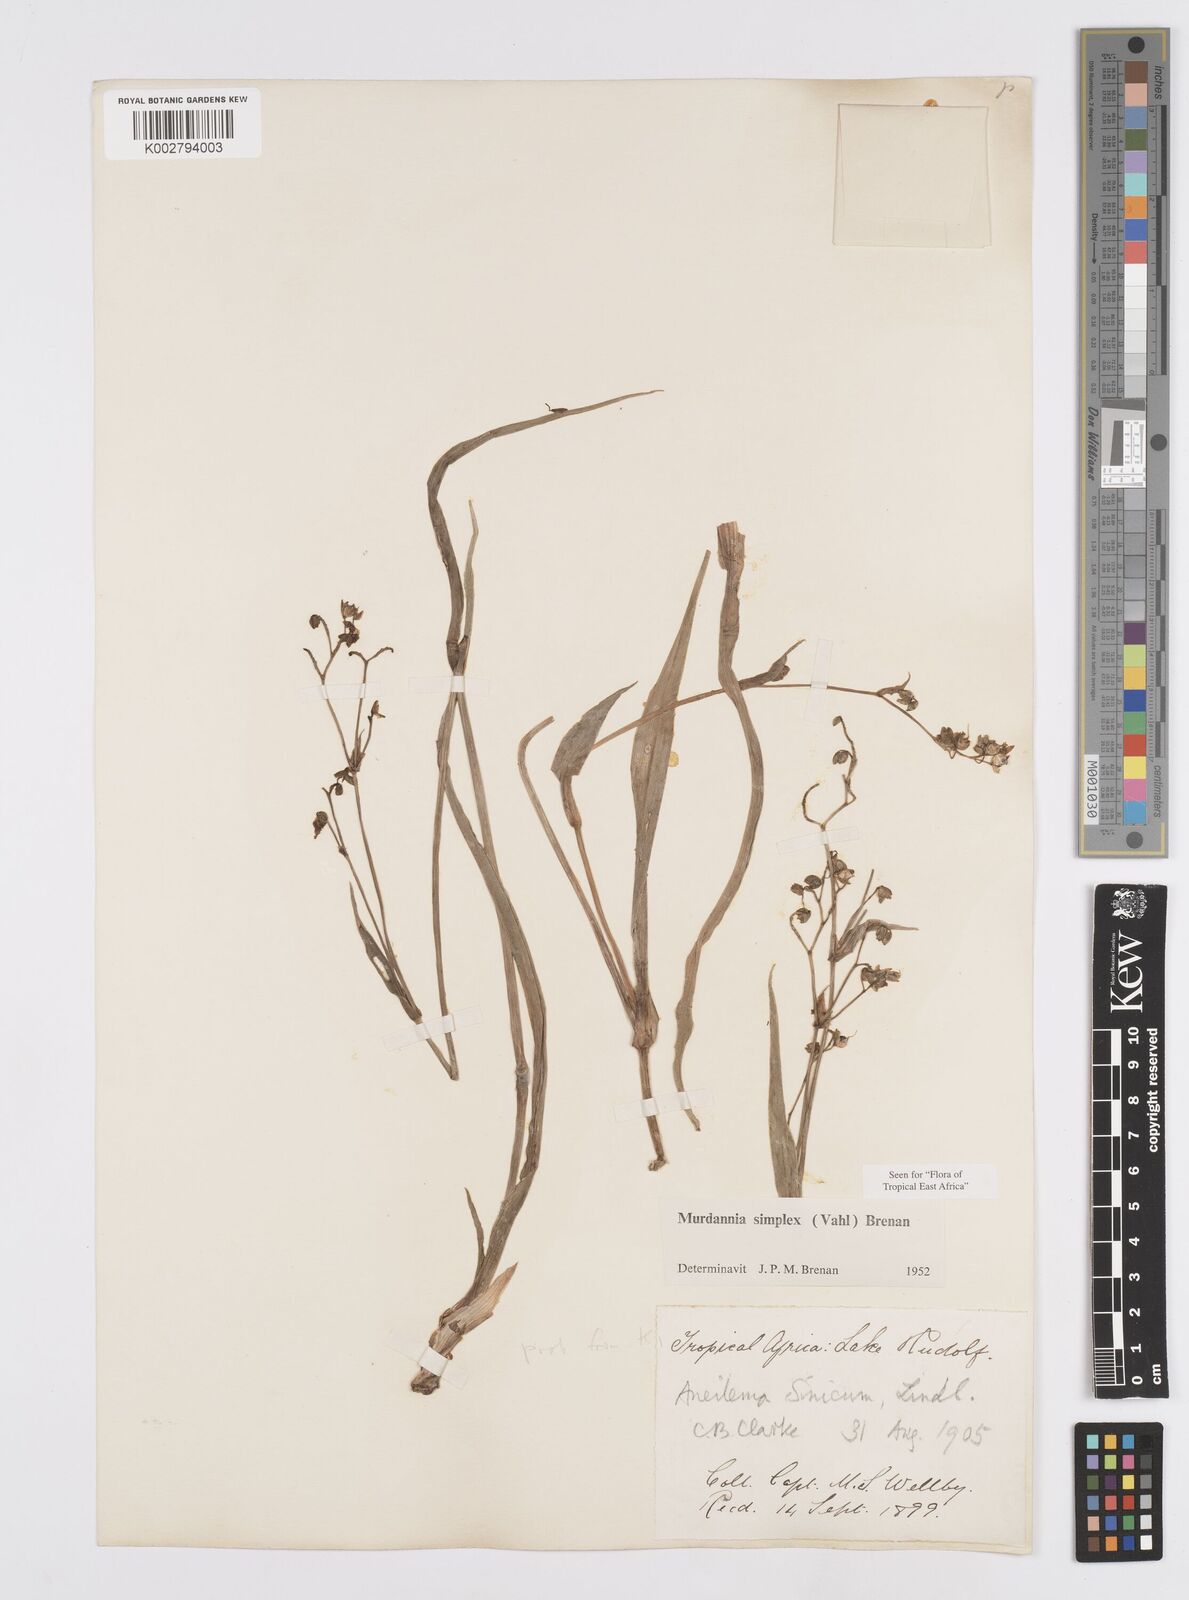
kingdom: Plantae
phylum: Tracheophyta
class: Liliopsida
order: Commelinales
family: Commelinaceae
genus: Murdannia
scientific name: Murdannia simplex
